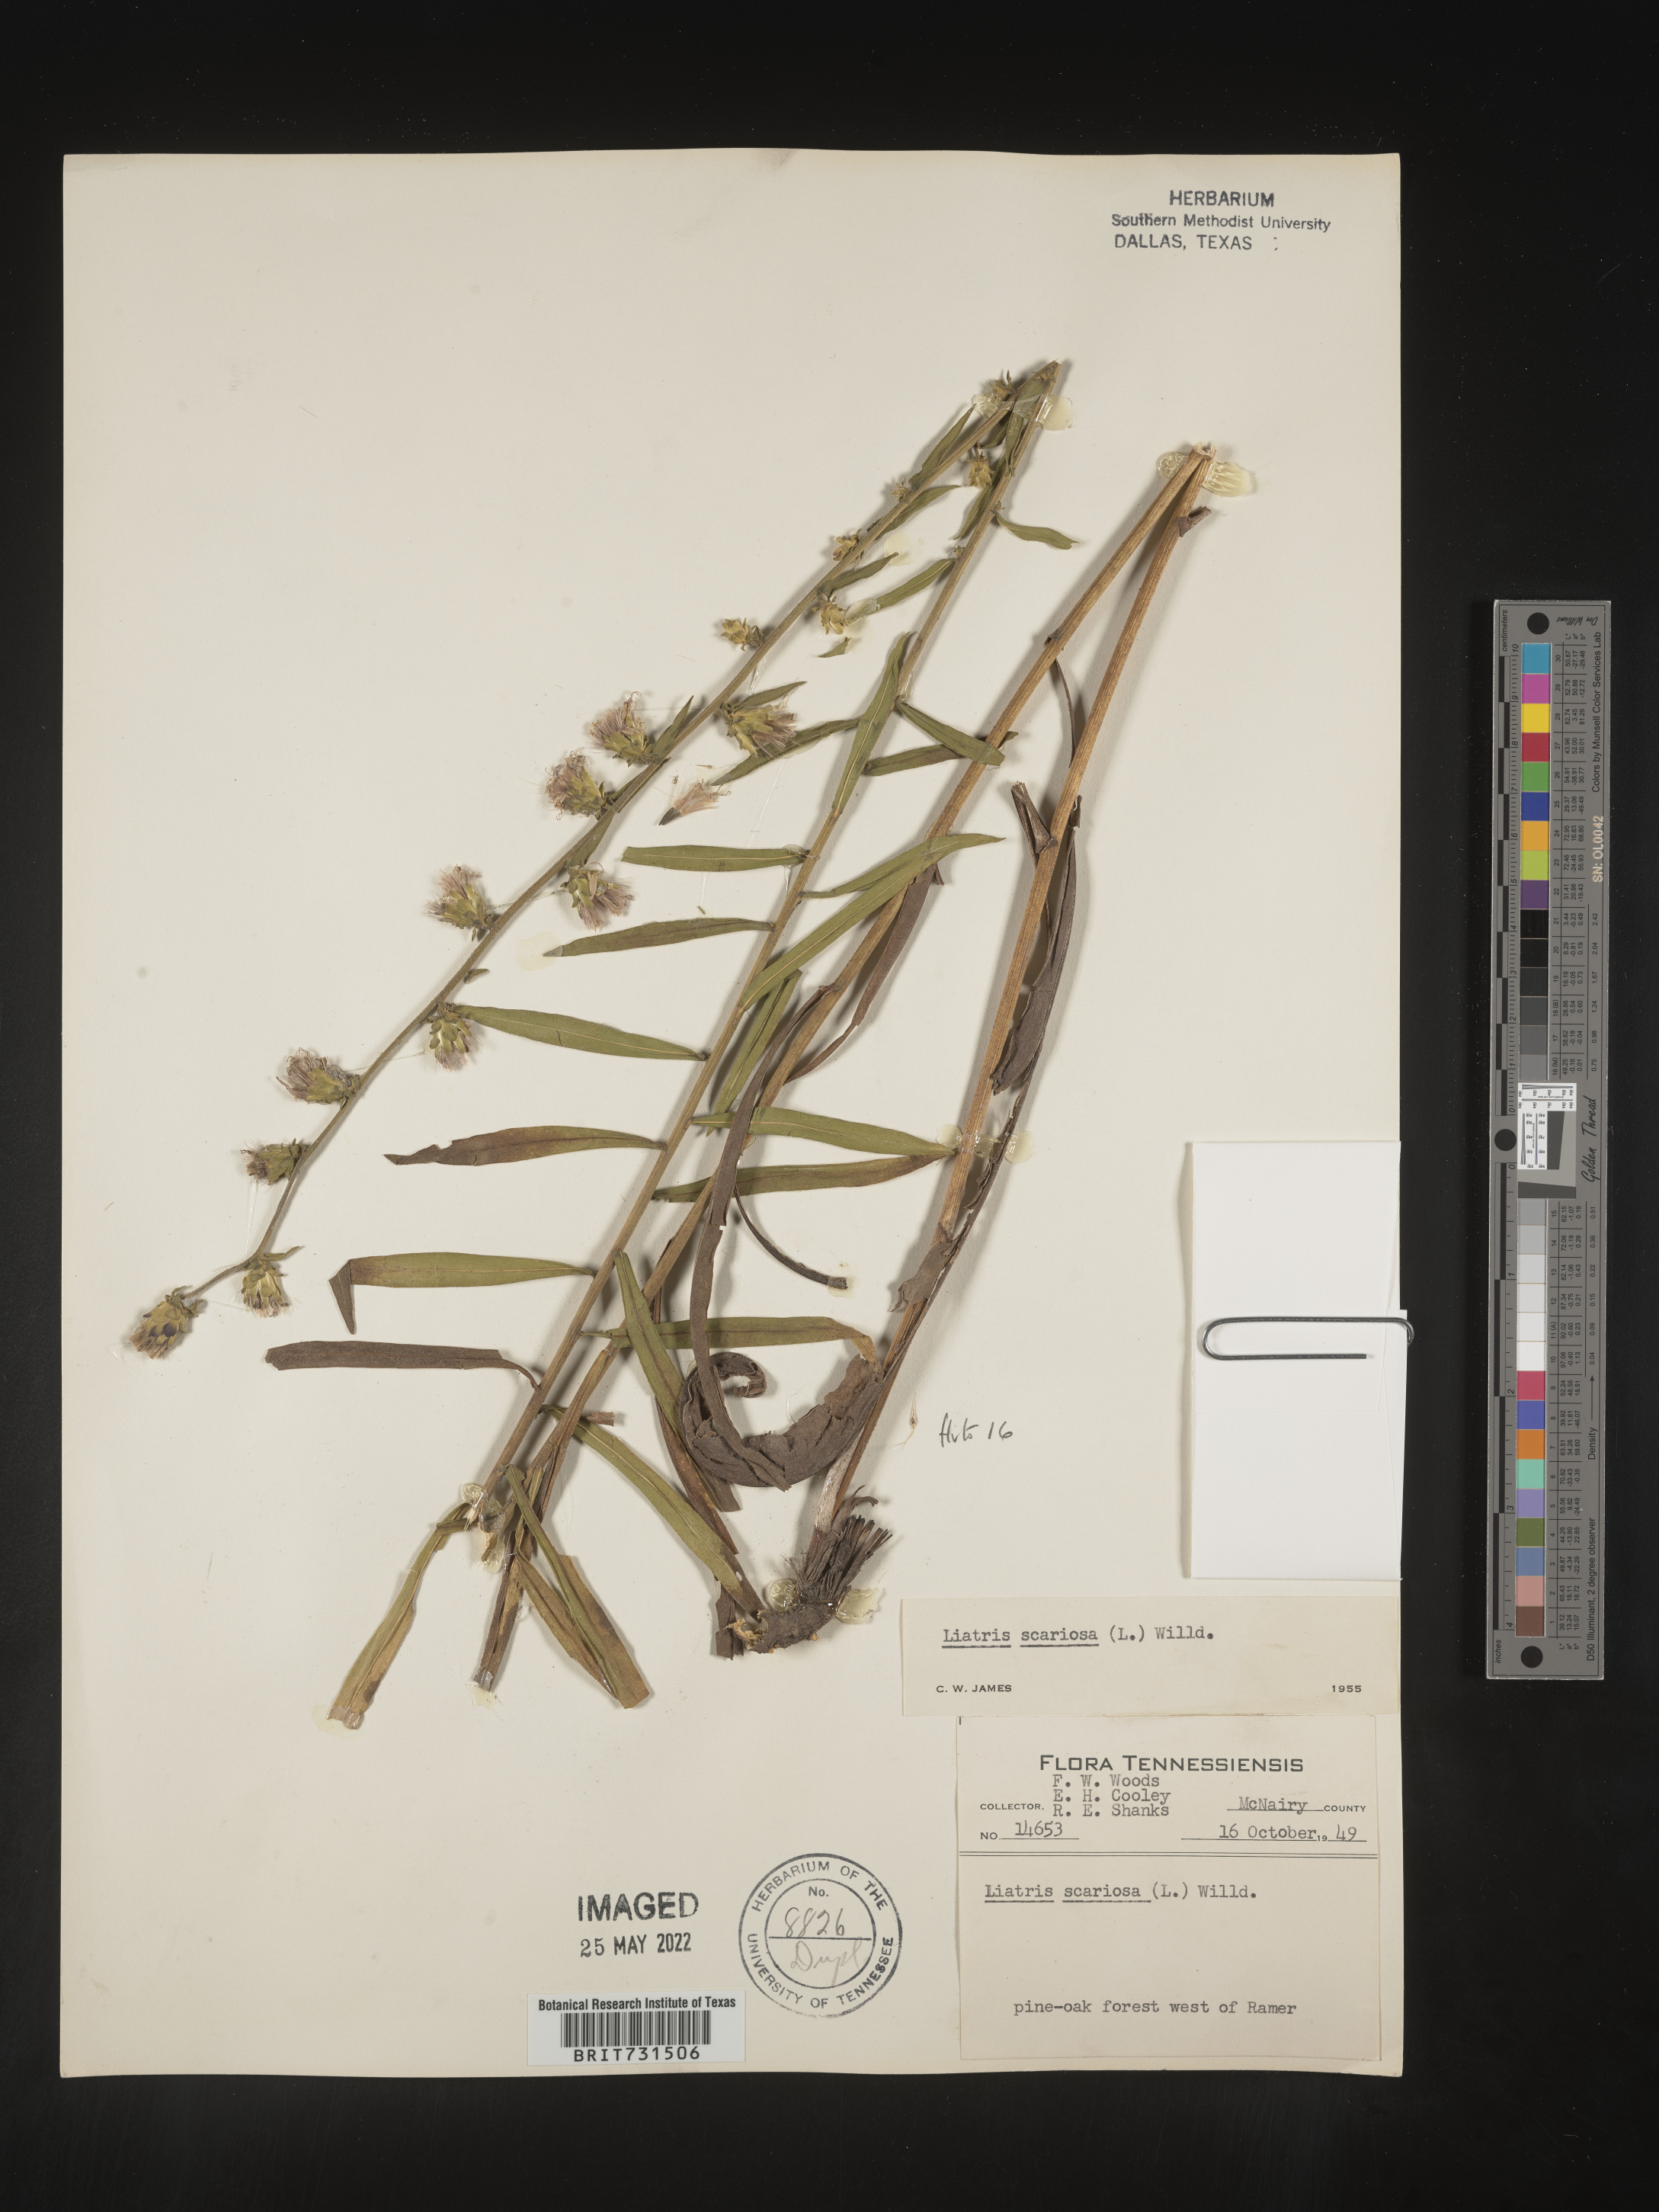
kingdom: Plantae
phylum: Tracheophyta
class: Magnoliopsida
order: Asterales
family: Asteraceae
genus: Liatris
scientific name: Liatris squarrulosa
